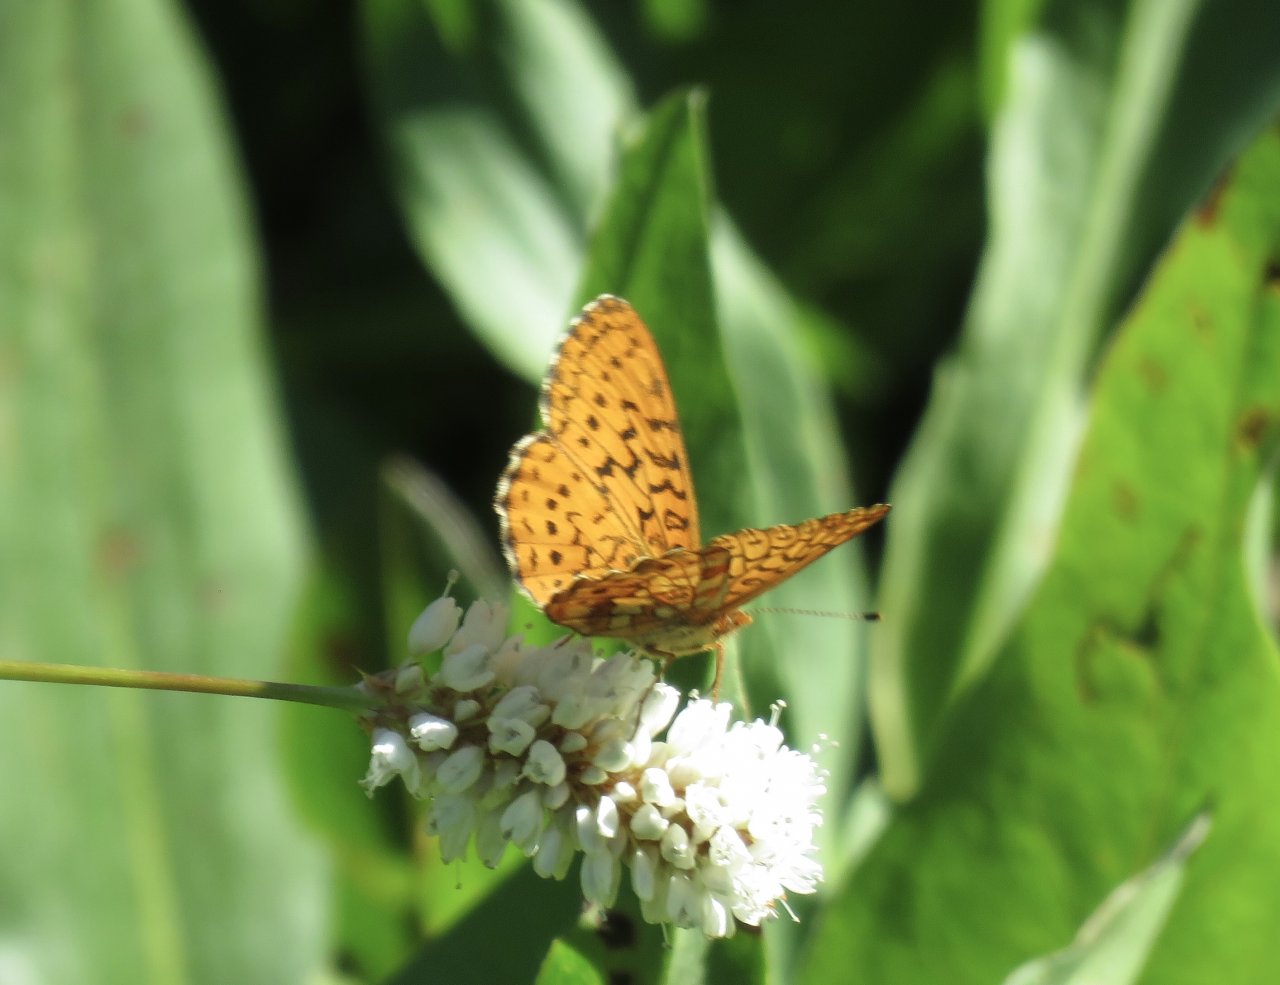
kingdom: Animalia
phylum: Arthropoda
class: Insecta
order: Lepidoptera
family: Nymphalidae
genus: Boloria
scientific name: Boloria kriemhild
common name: Relict Fritillary
